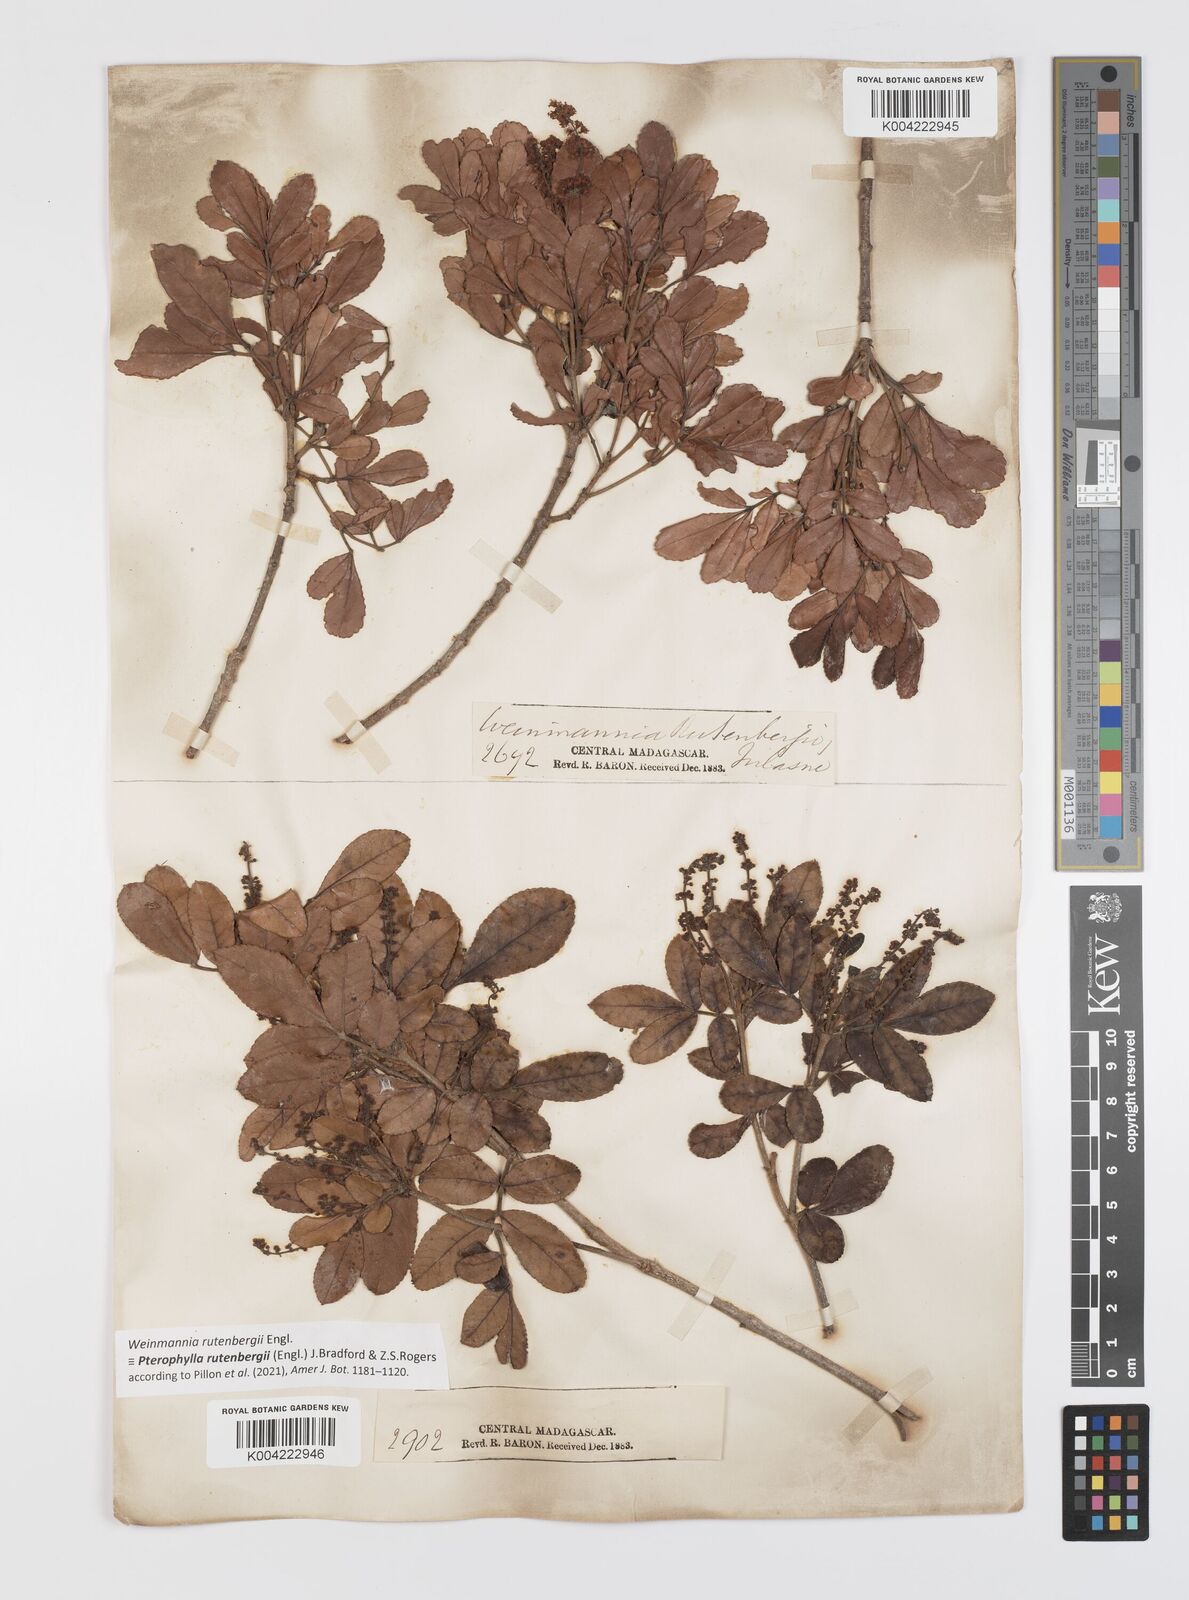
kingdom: Plantae
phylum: Tracheophyta
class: Magnoliopsida
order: Oxalidales
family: Cunoniaceae
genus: Pterophylla
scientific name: Pterophylla rutenbergii
